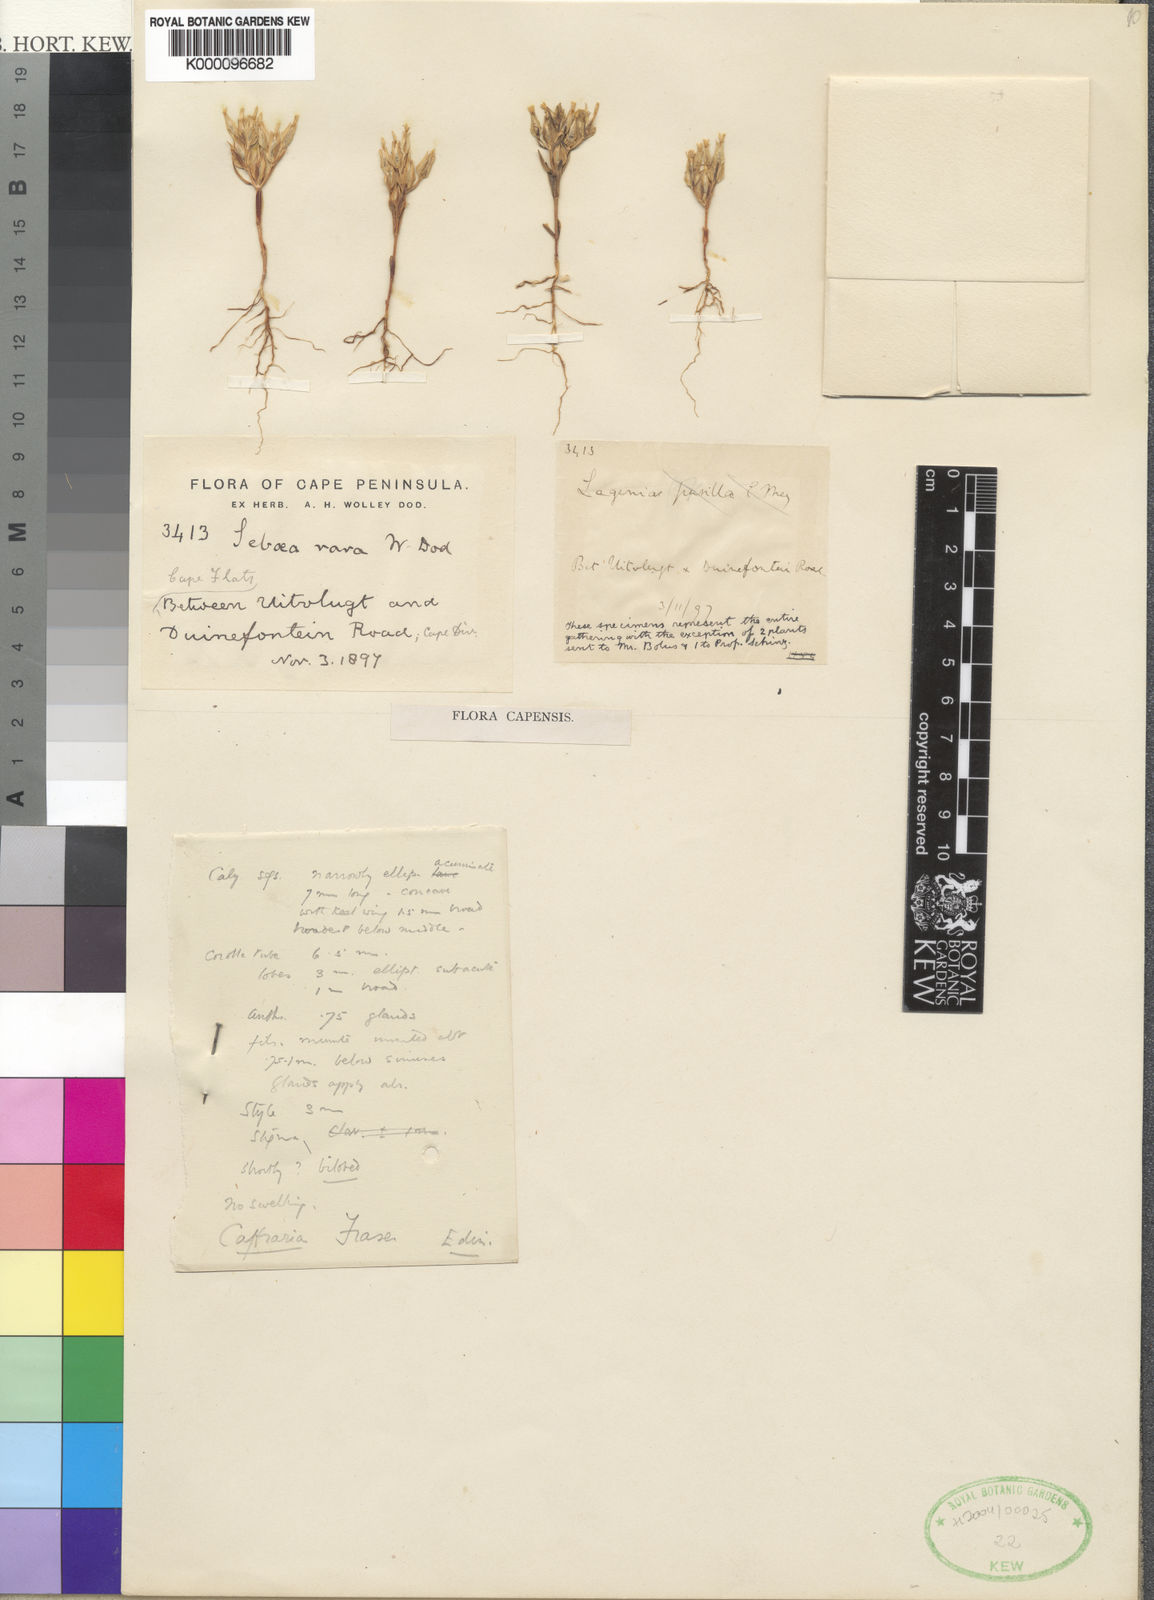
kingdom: Plantae
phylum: Tracheophyta
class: Magnoliopsida
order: Gentianales
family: Gentianaceae
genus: Sebaea
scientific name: Sebaea rara
